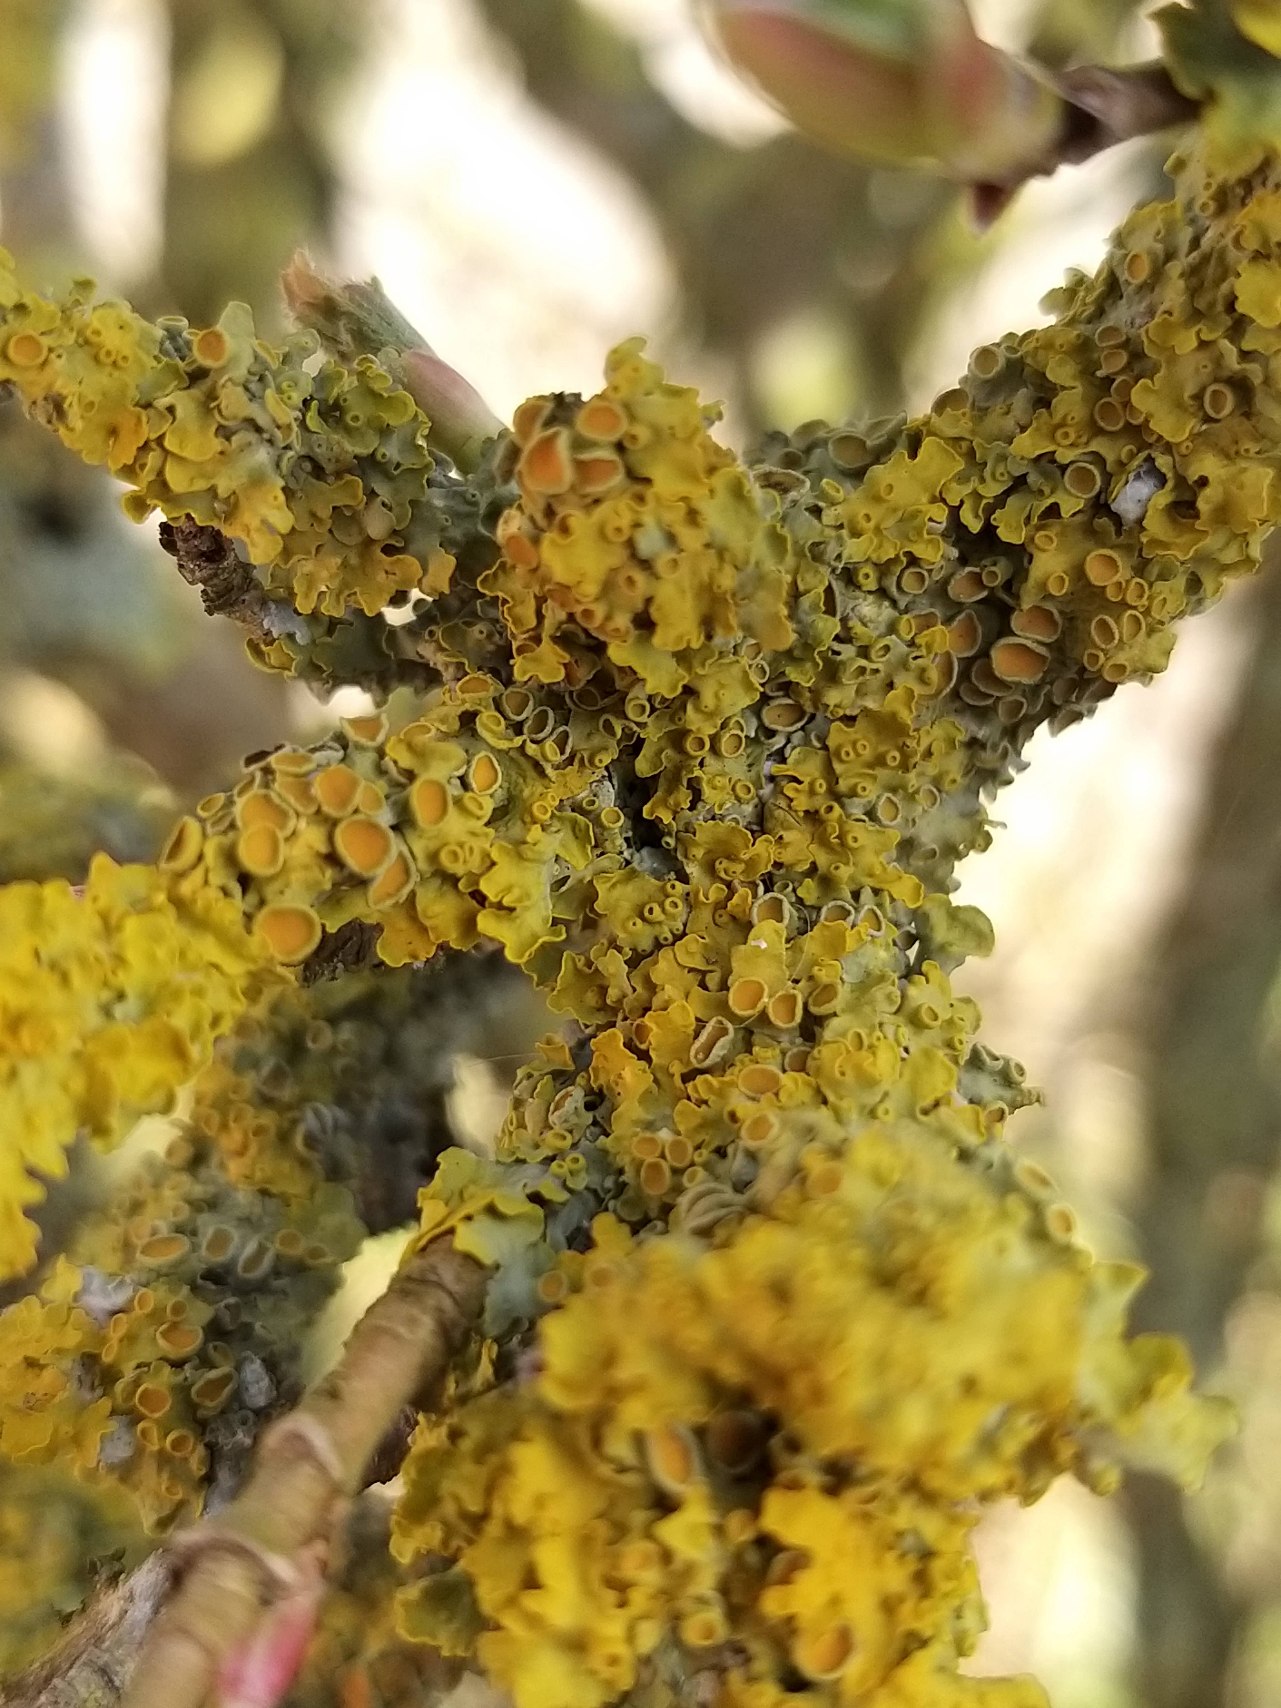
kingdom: Fungi
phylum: Ascomycota
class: Lecanoromycetes
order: Teloschistales
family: Teloschistaceae
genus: Xanthoria
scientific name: Xanthoria parietina
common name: Almindelig væggelav
